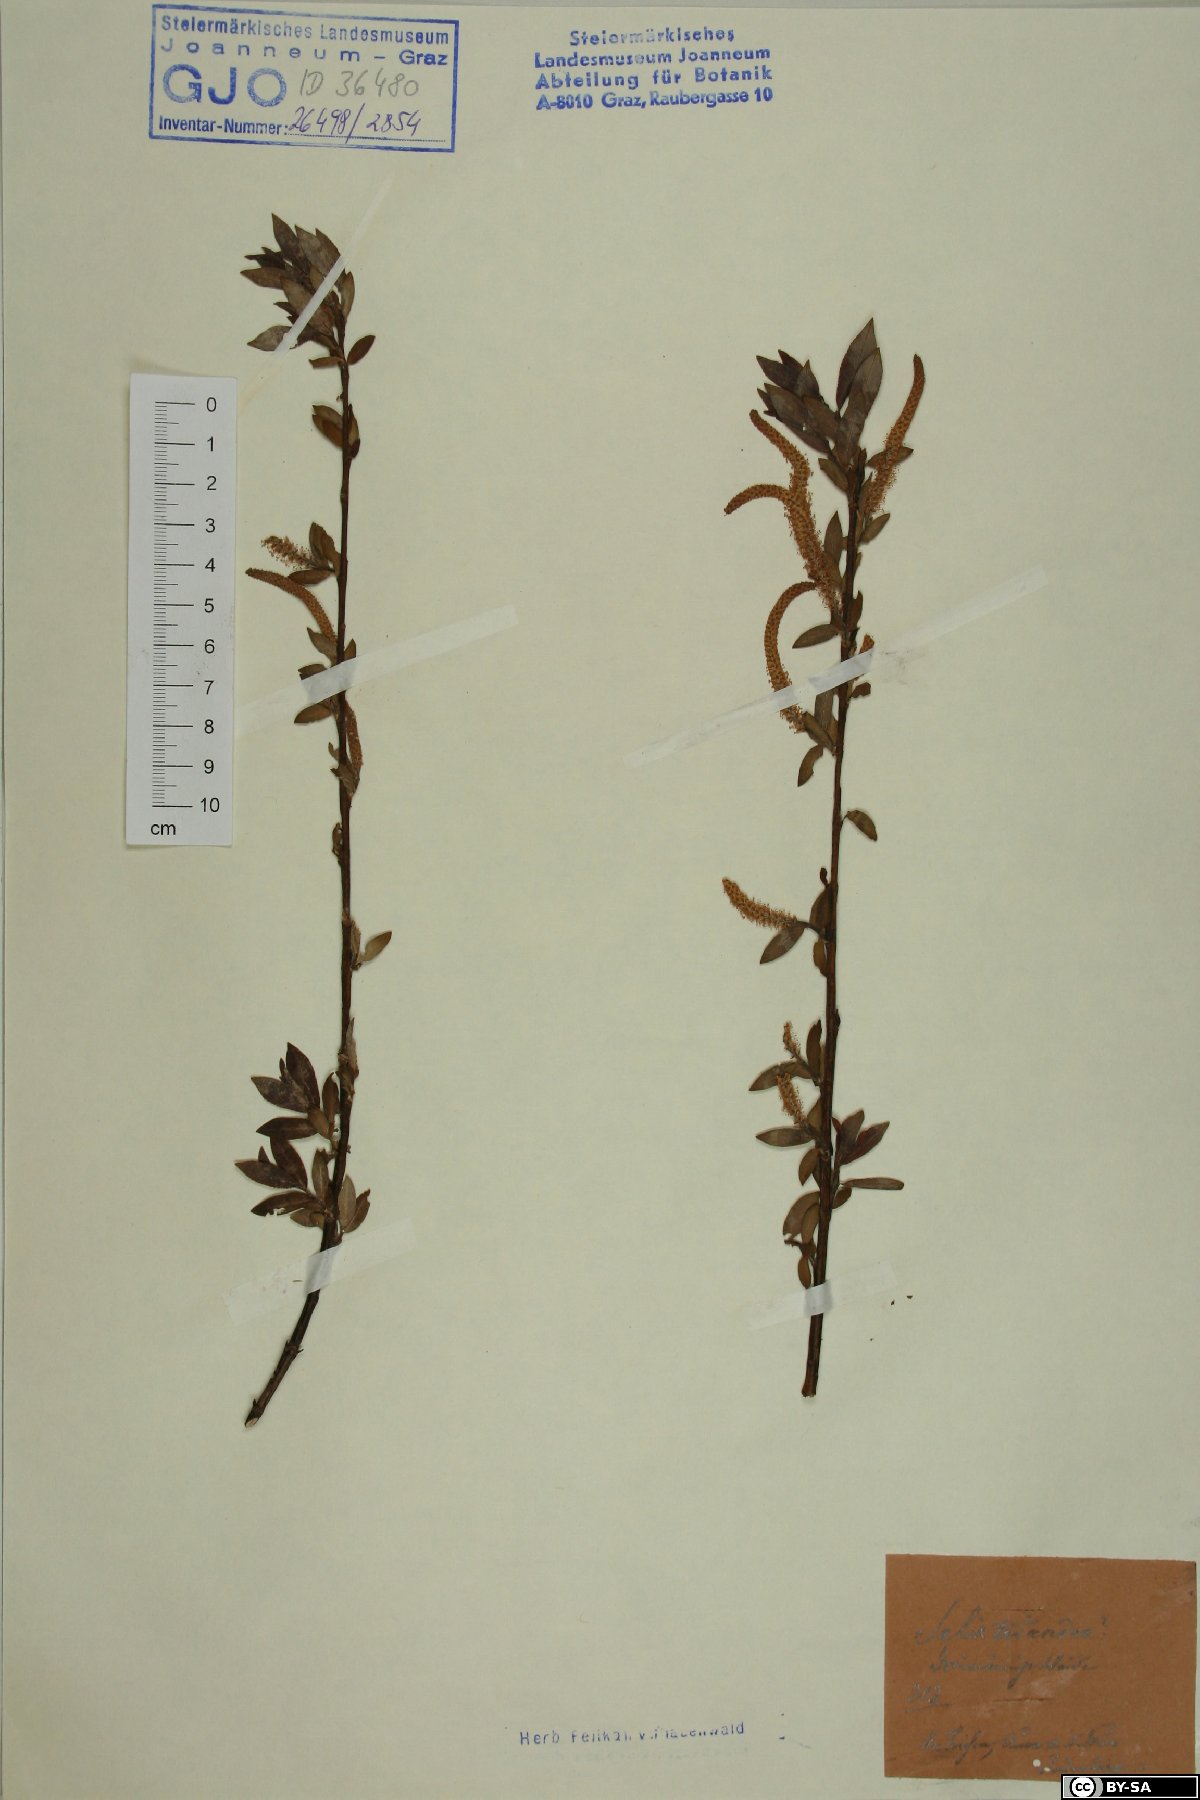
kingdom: Plantae
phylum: Tracheophyta
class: Magnoliopsida
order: Malpighiales
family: Salicaceae
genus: Salix
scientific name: Salix triandra
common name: Almond willow
